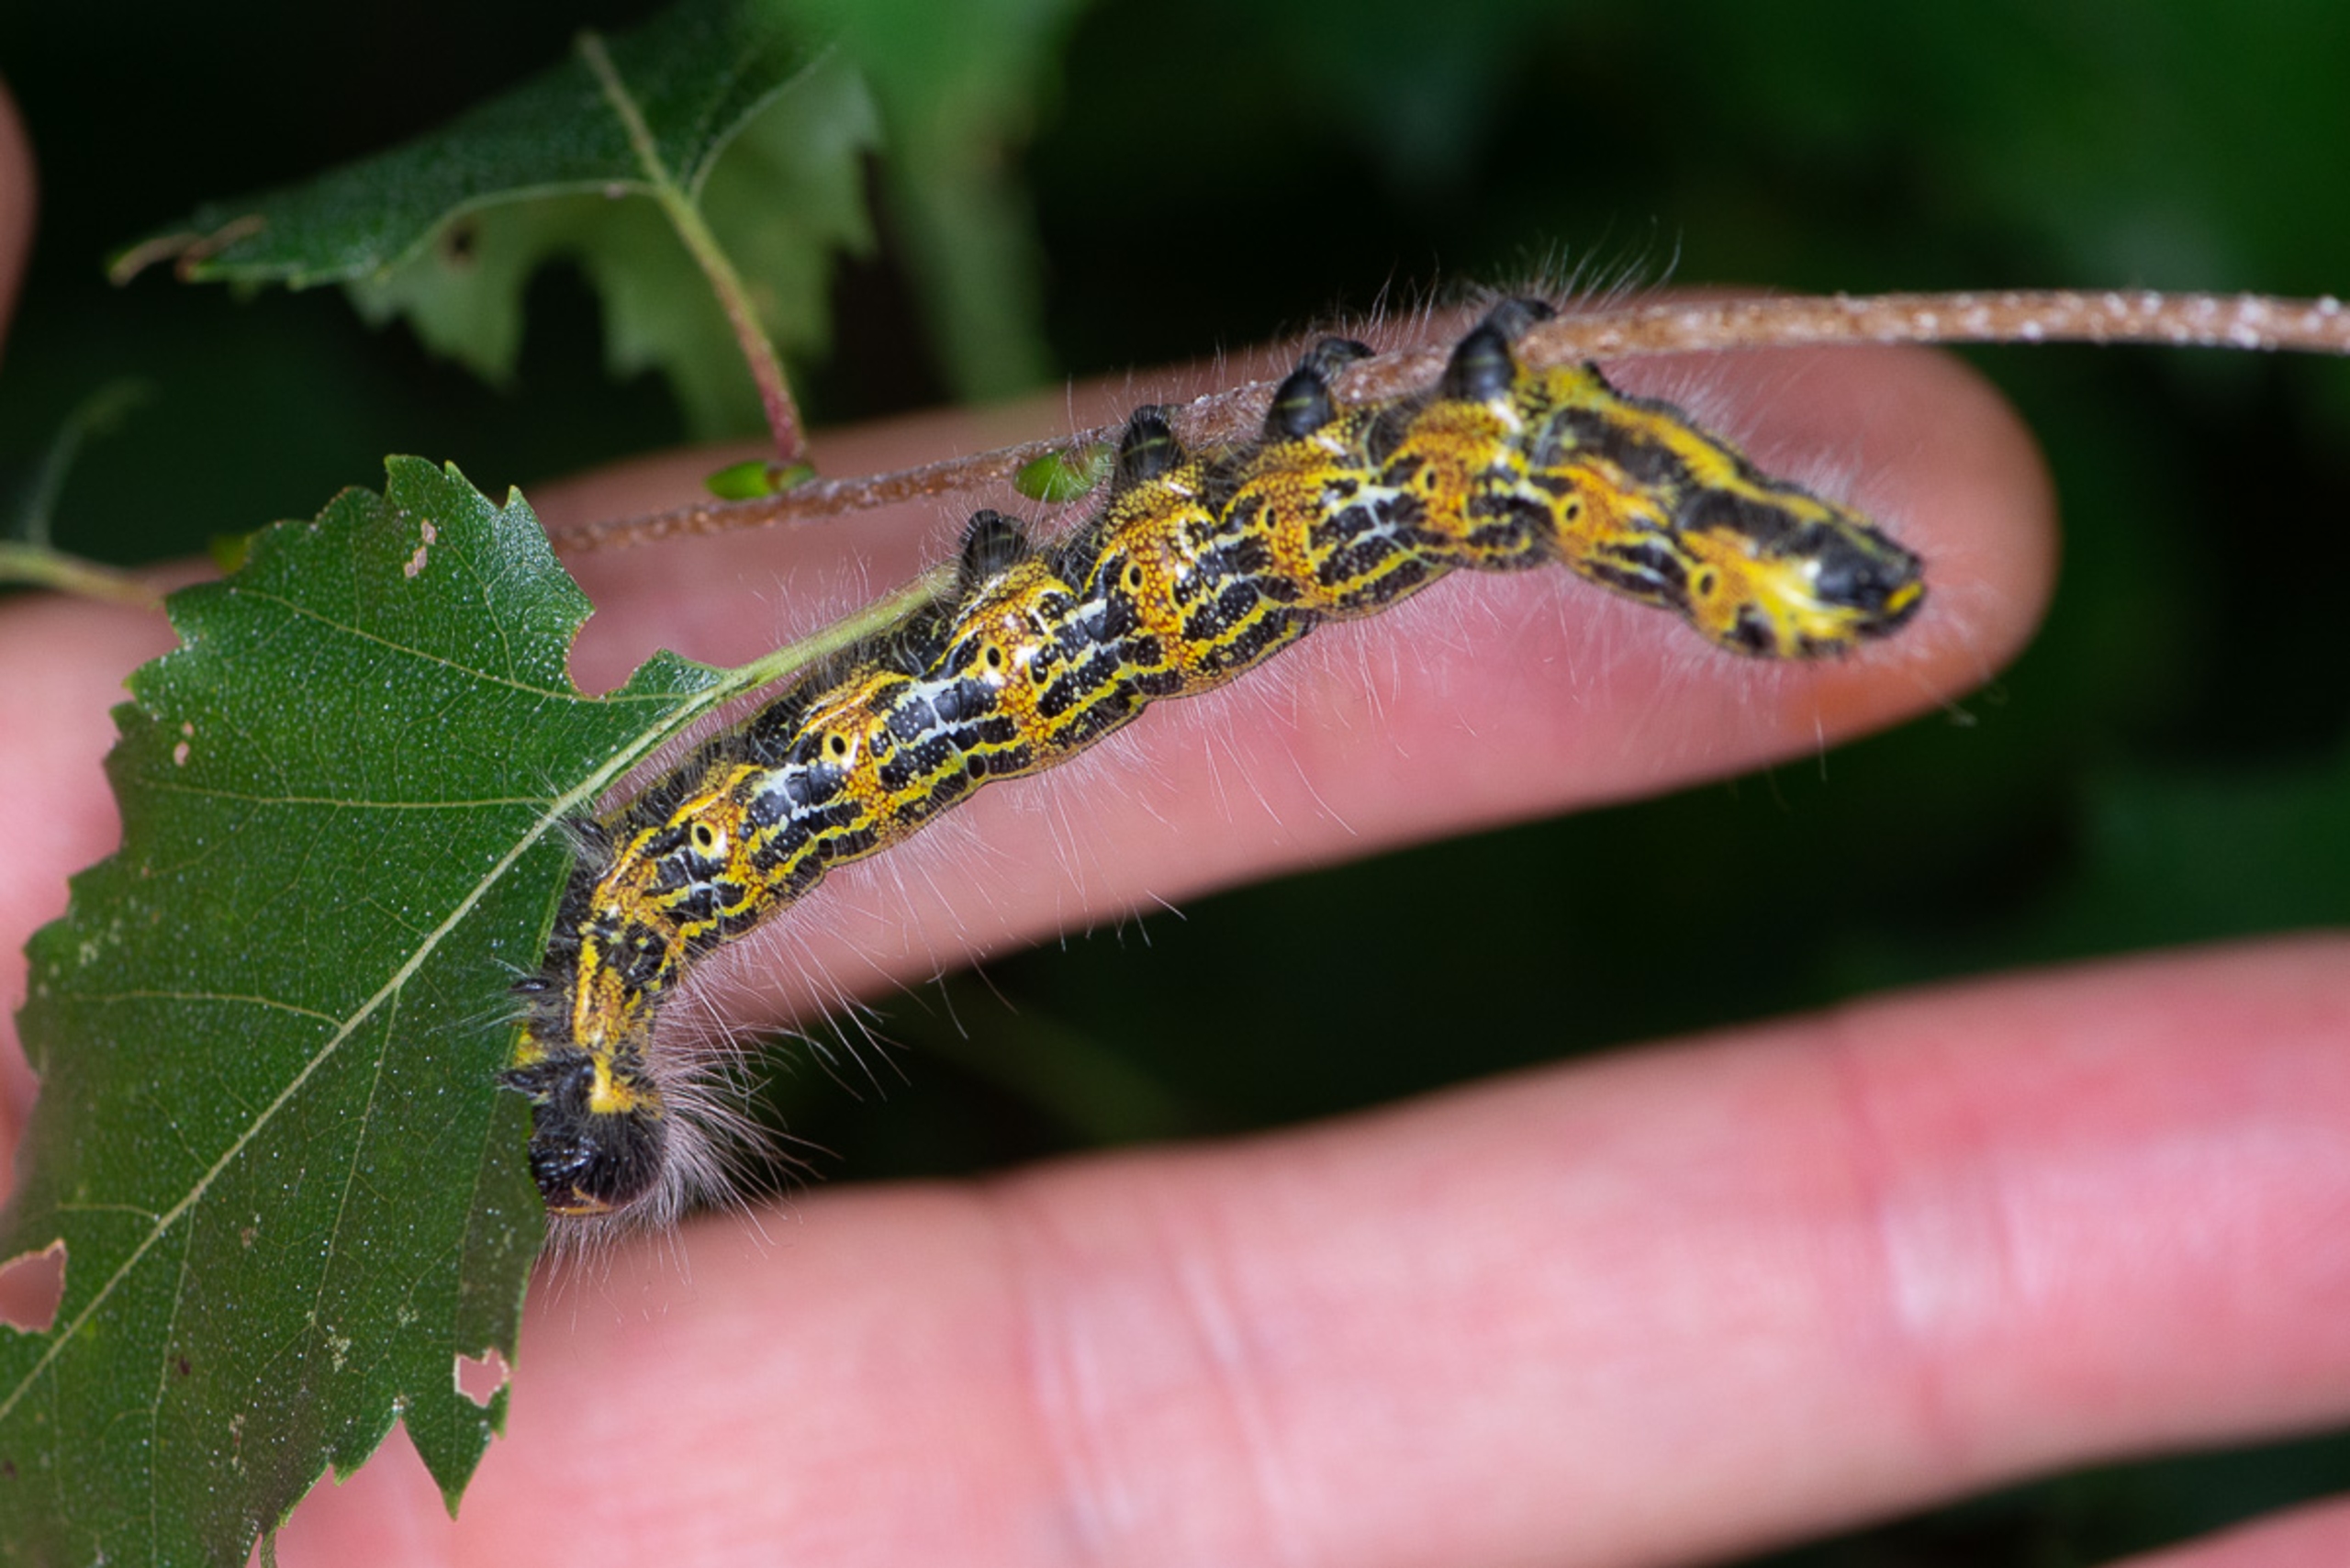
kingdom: Animalia
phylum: Arthropoda
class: Insecta
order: Lepidoptera
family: Notodontidae
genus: Phalera
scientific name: Phalera bucephala
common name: Måneplet
